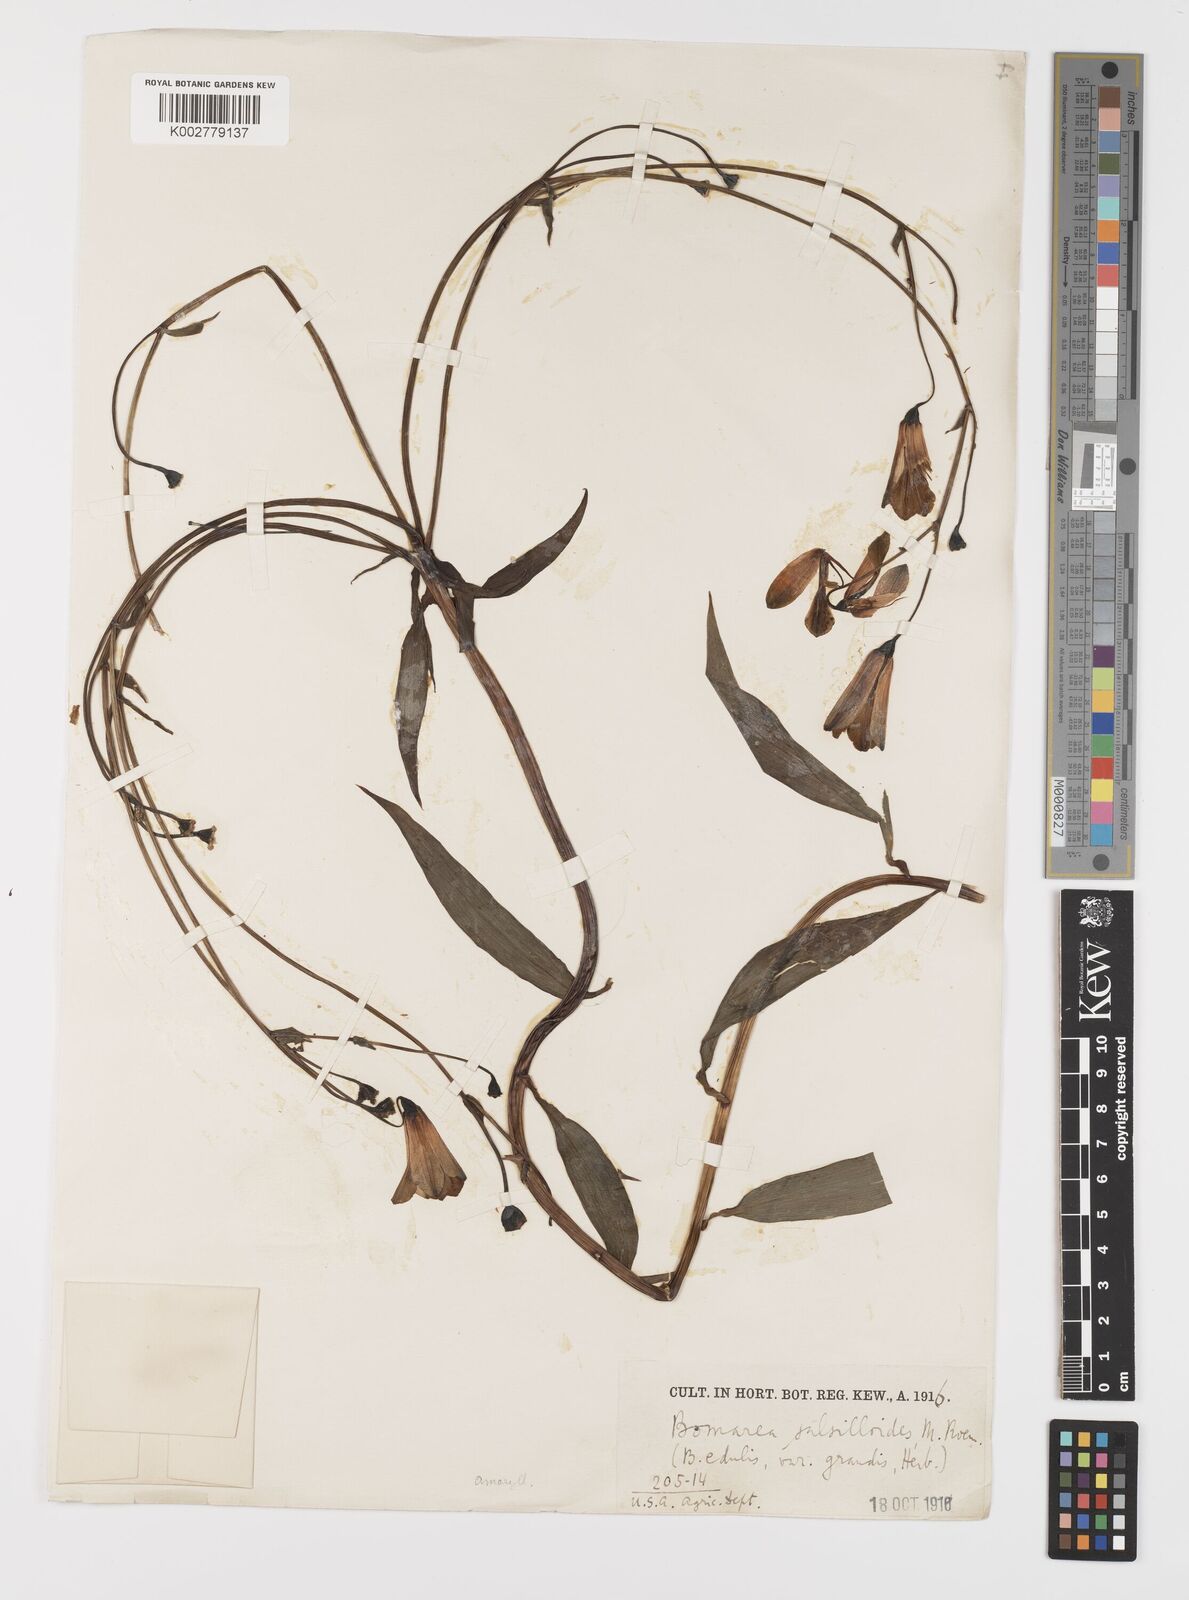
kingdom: Plantae
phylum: Tracheophyta
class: Liliopsida
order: Liliales
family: Alstroemeriaceae
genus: Bomarea
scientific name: Bomarea edulis
